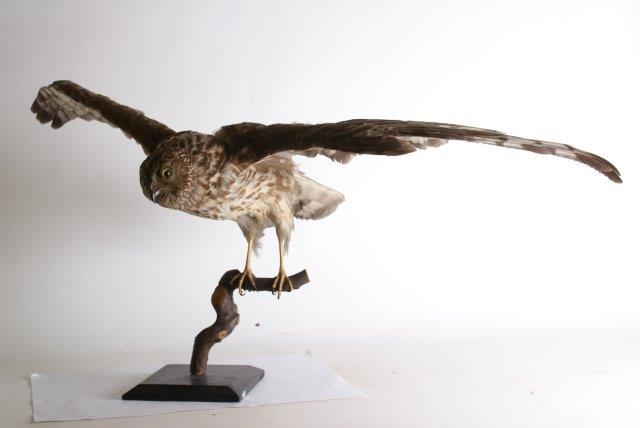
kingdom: Animalia
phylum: Chordata
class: Aves
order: Accipitriformes
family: Accipitridae
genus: Circus
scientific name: Circus cyaneus
